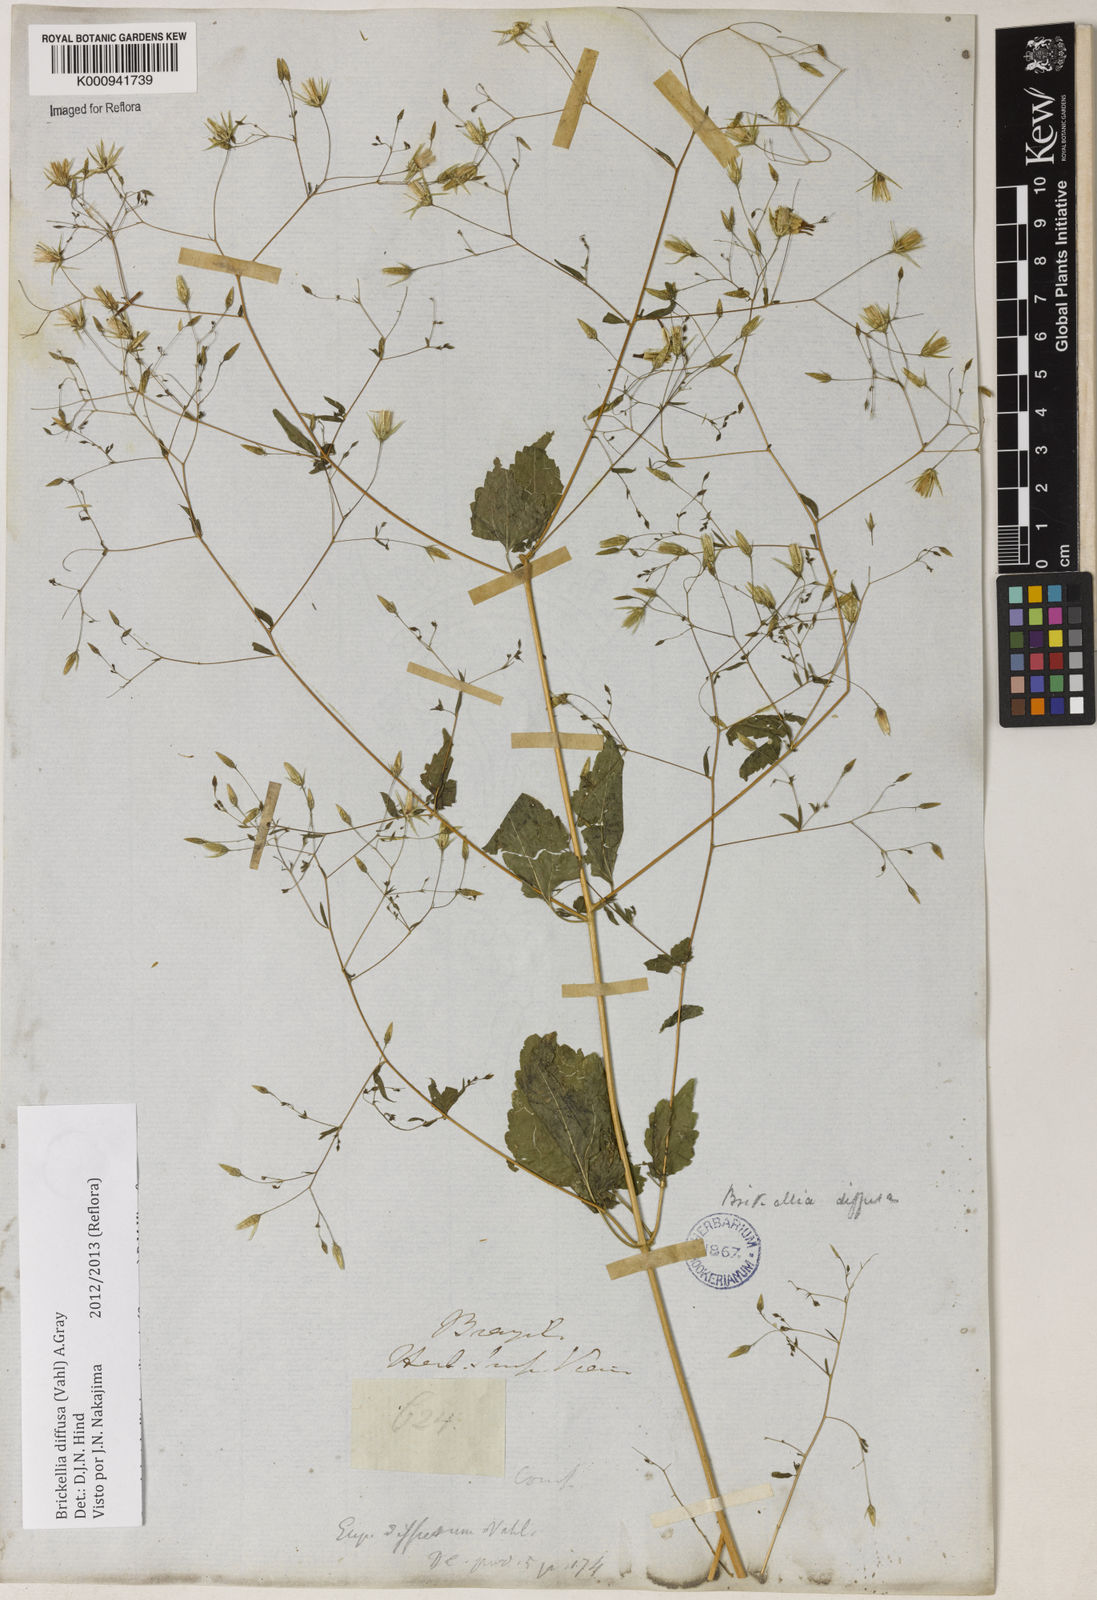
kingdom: Plantae
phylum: Tracheophyta
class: Magnoliopsida
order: Asterales
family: Asteraceae
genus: Brickellia
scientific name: Brickellia diffusa
